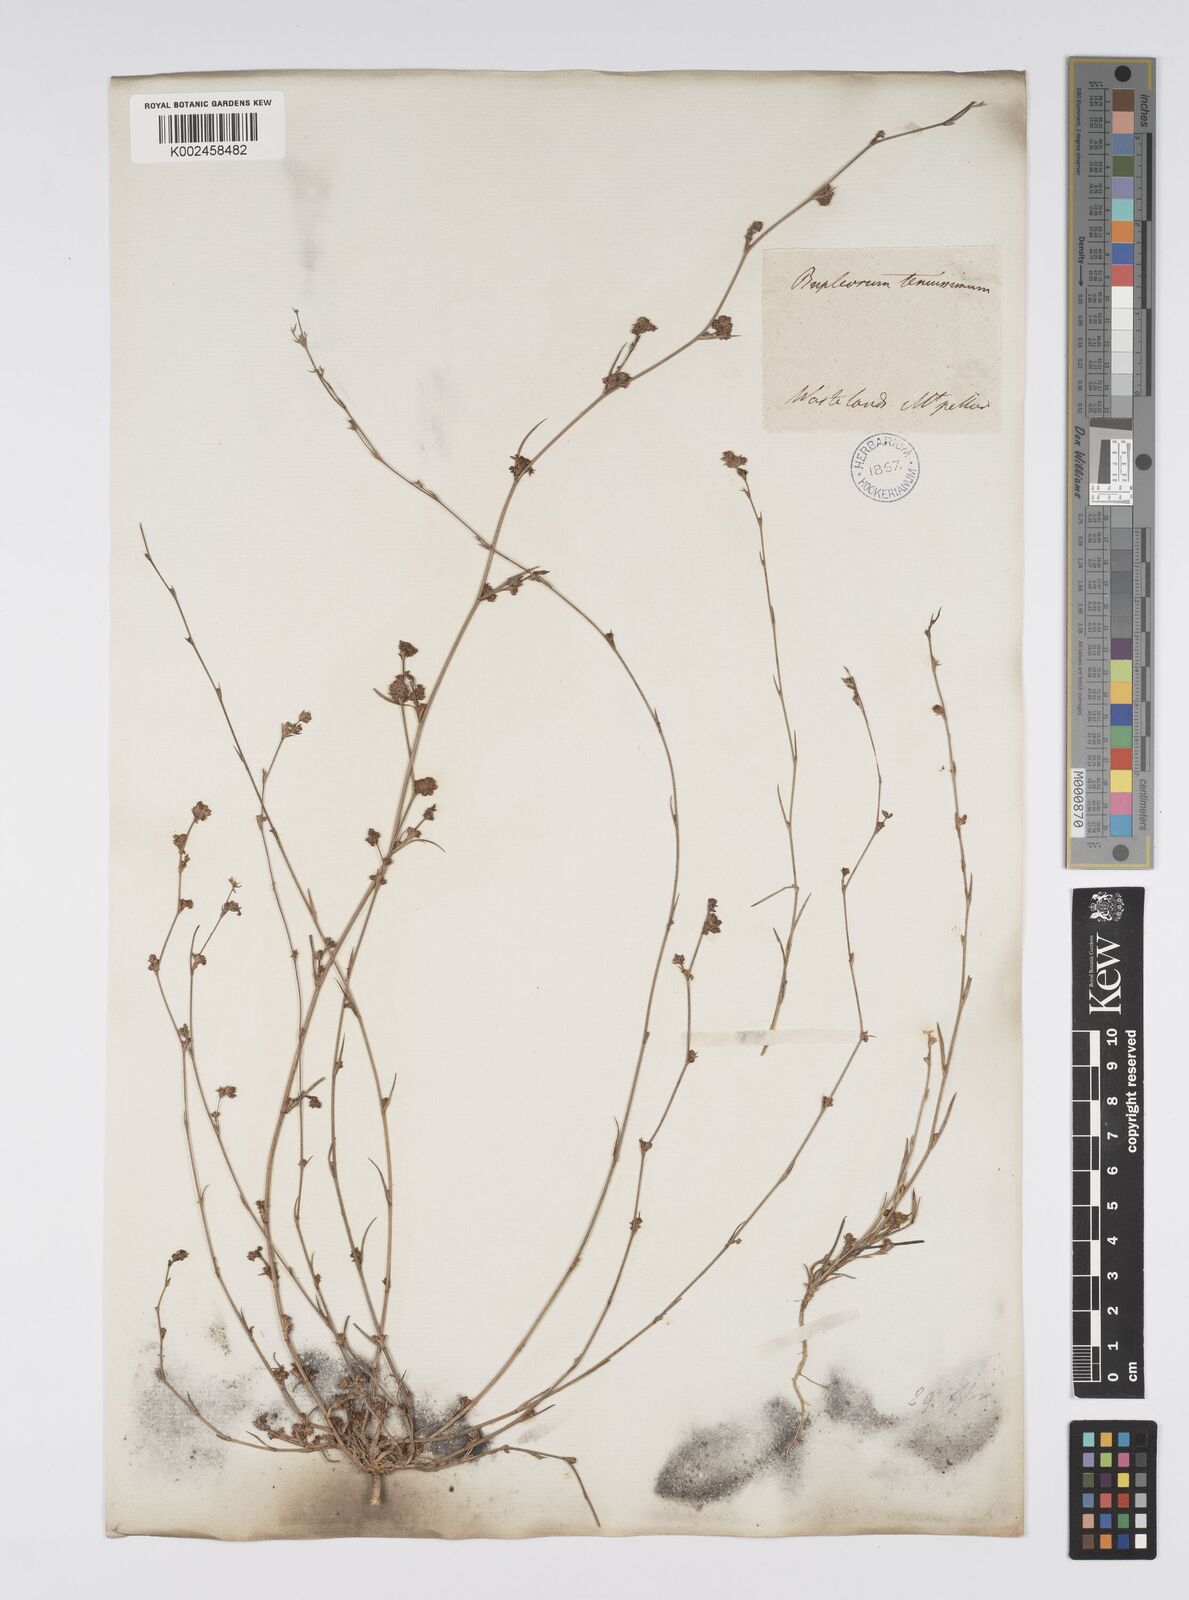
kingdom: Plantae
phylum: Tracheophyta
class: Magnoliopsida
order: Apiales
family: Apiaceae
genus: Bupleurum
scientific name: Bupleurum tenuissimum
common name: Slender hare's-ear
